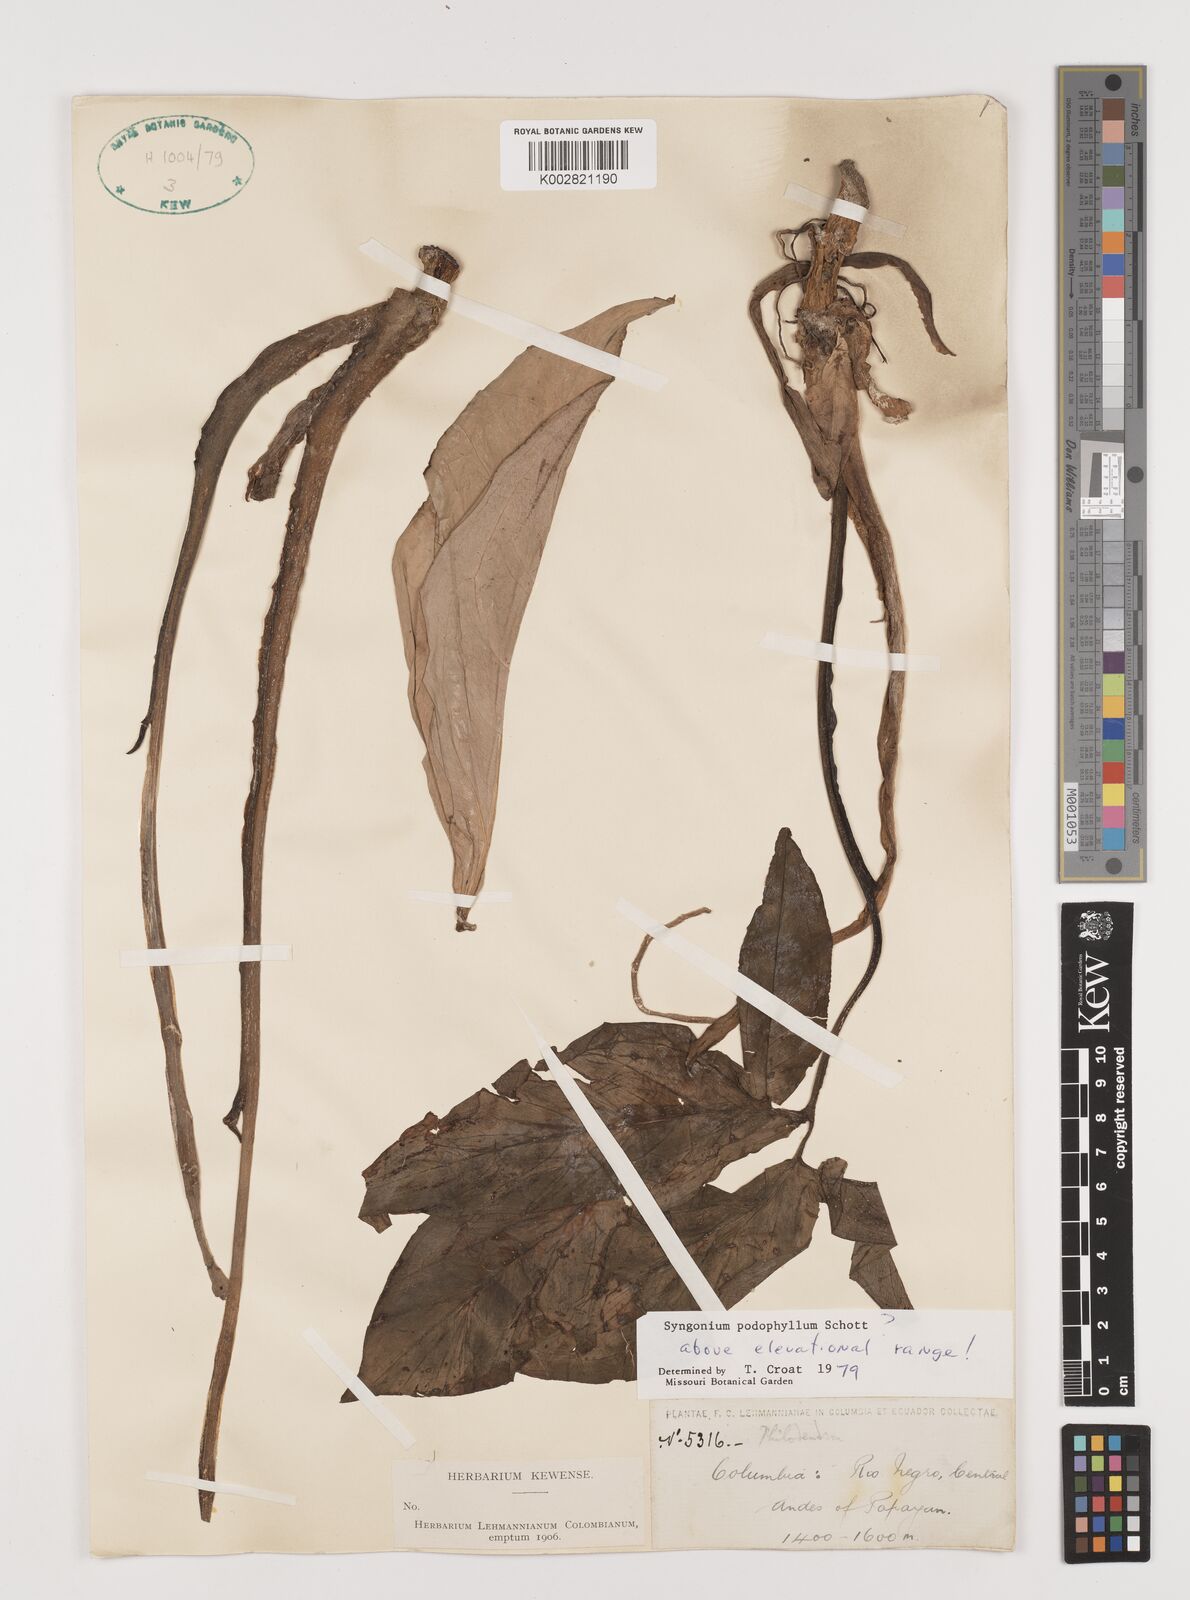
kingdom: Plantae
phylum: Tracheophyta
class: Liliopsida
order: Alismatales
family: Araceae
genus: Syngonium
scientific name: Syngonium podophyllum
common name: American evergreen
